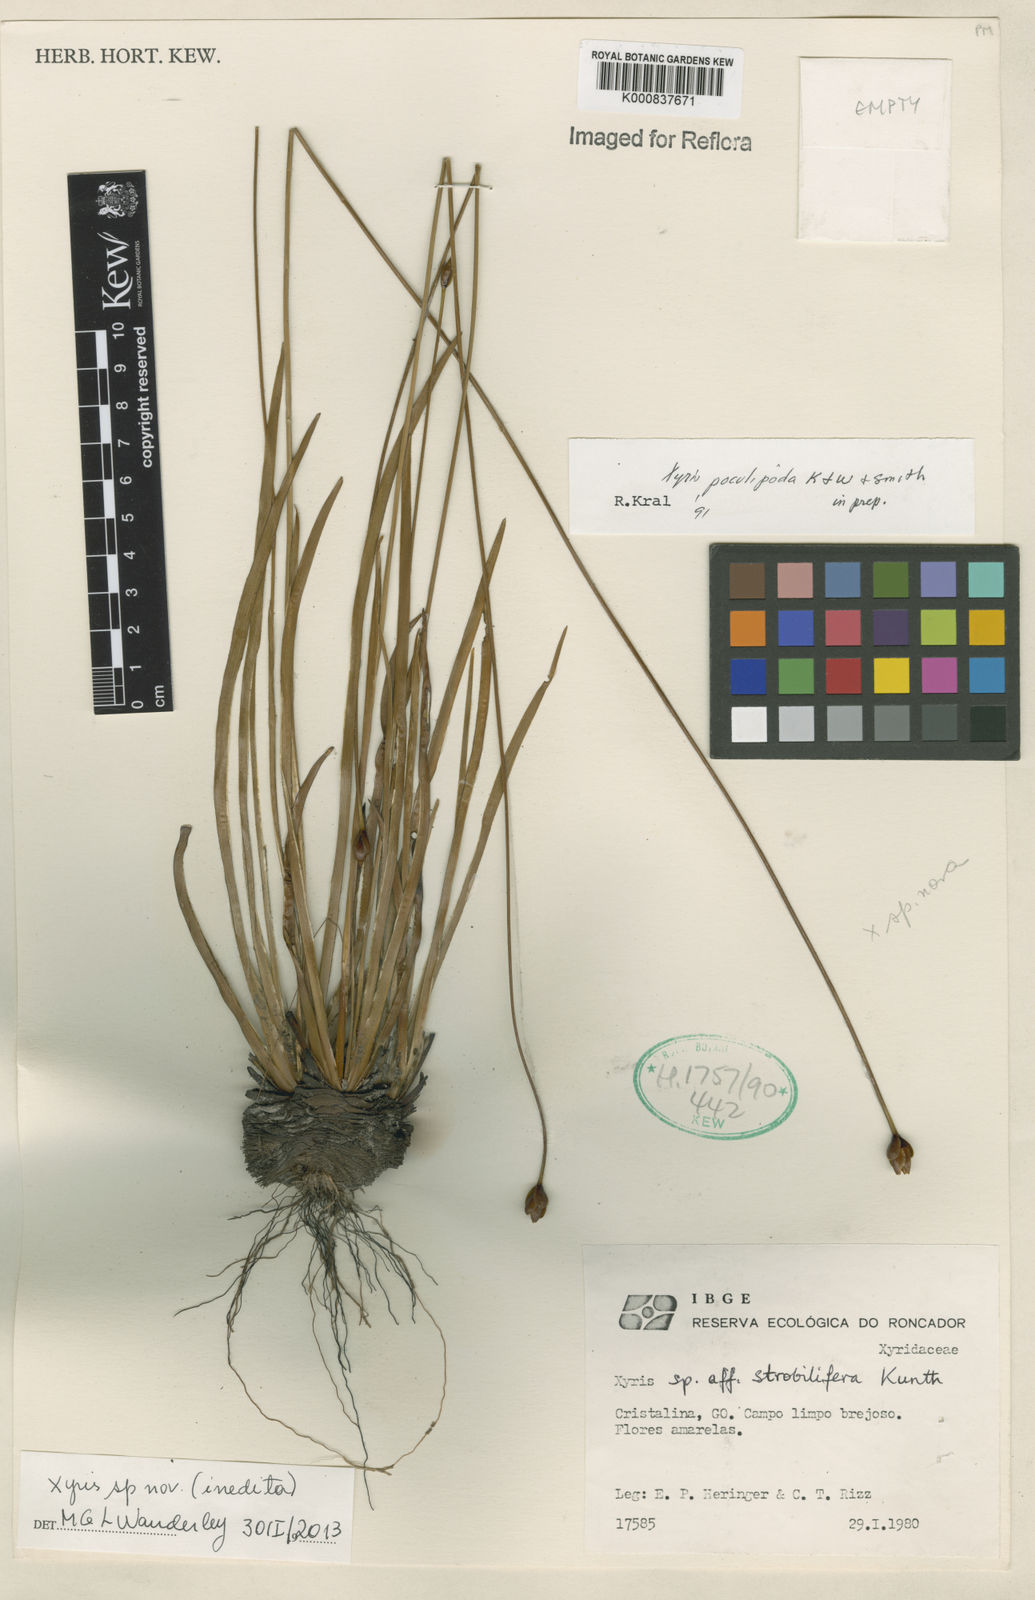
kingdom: Plantae
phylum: Tracheophyta
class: Liliopsida
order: Poales
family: Xyridaceae
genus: Xyris
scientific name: Xyris
